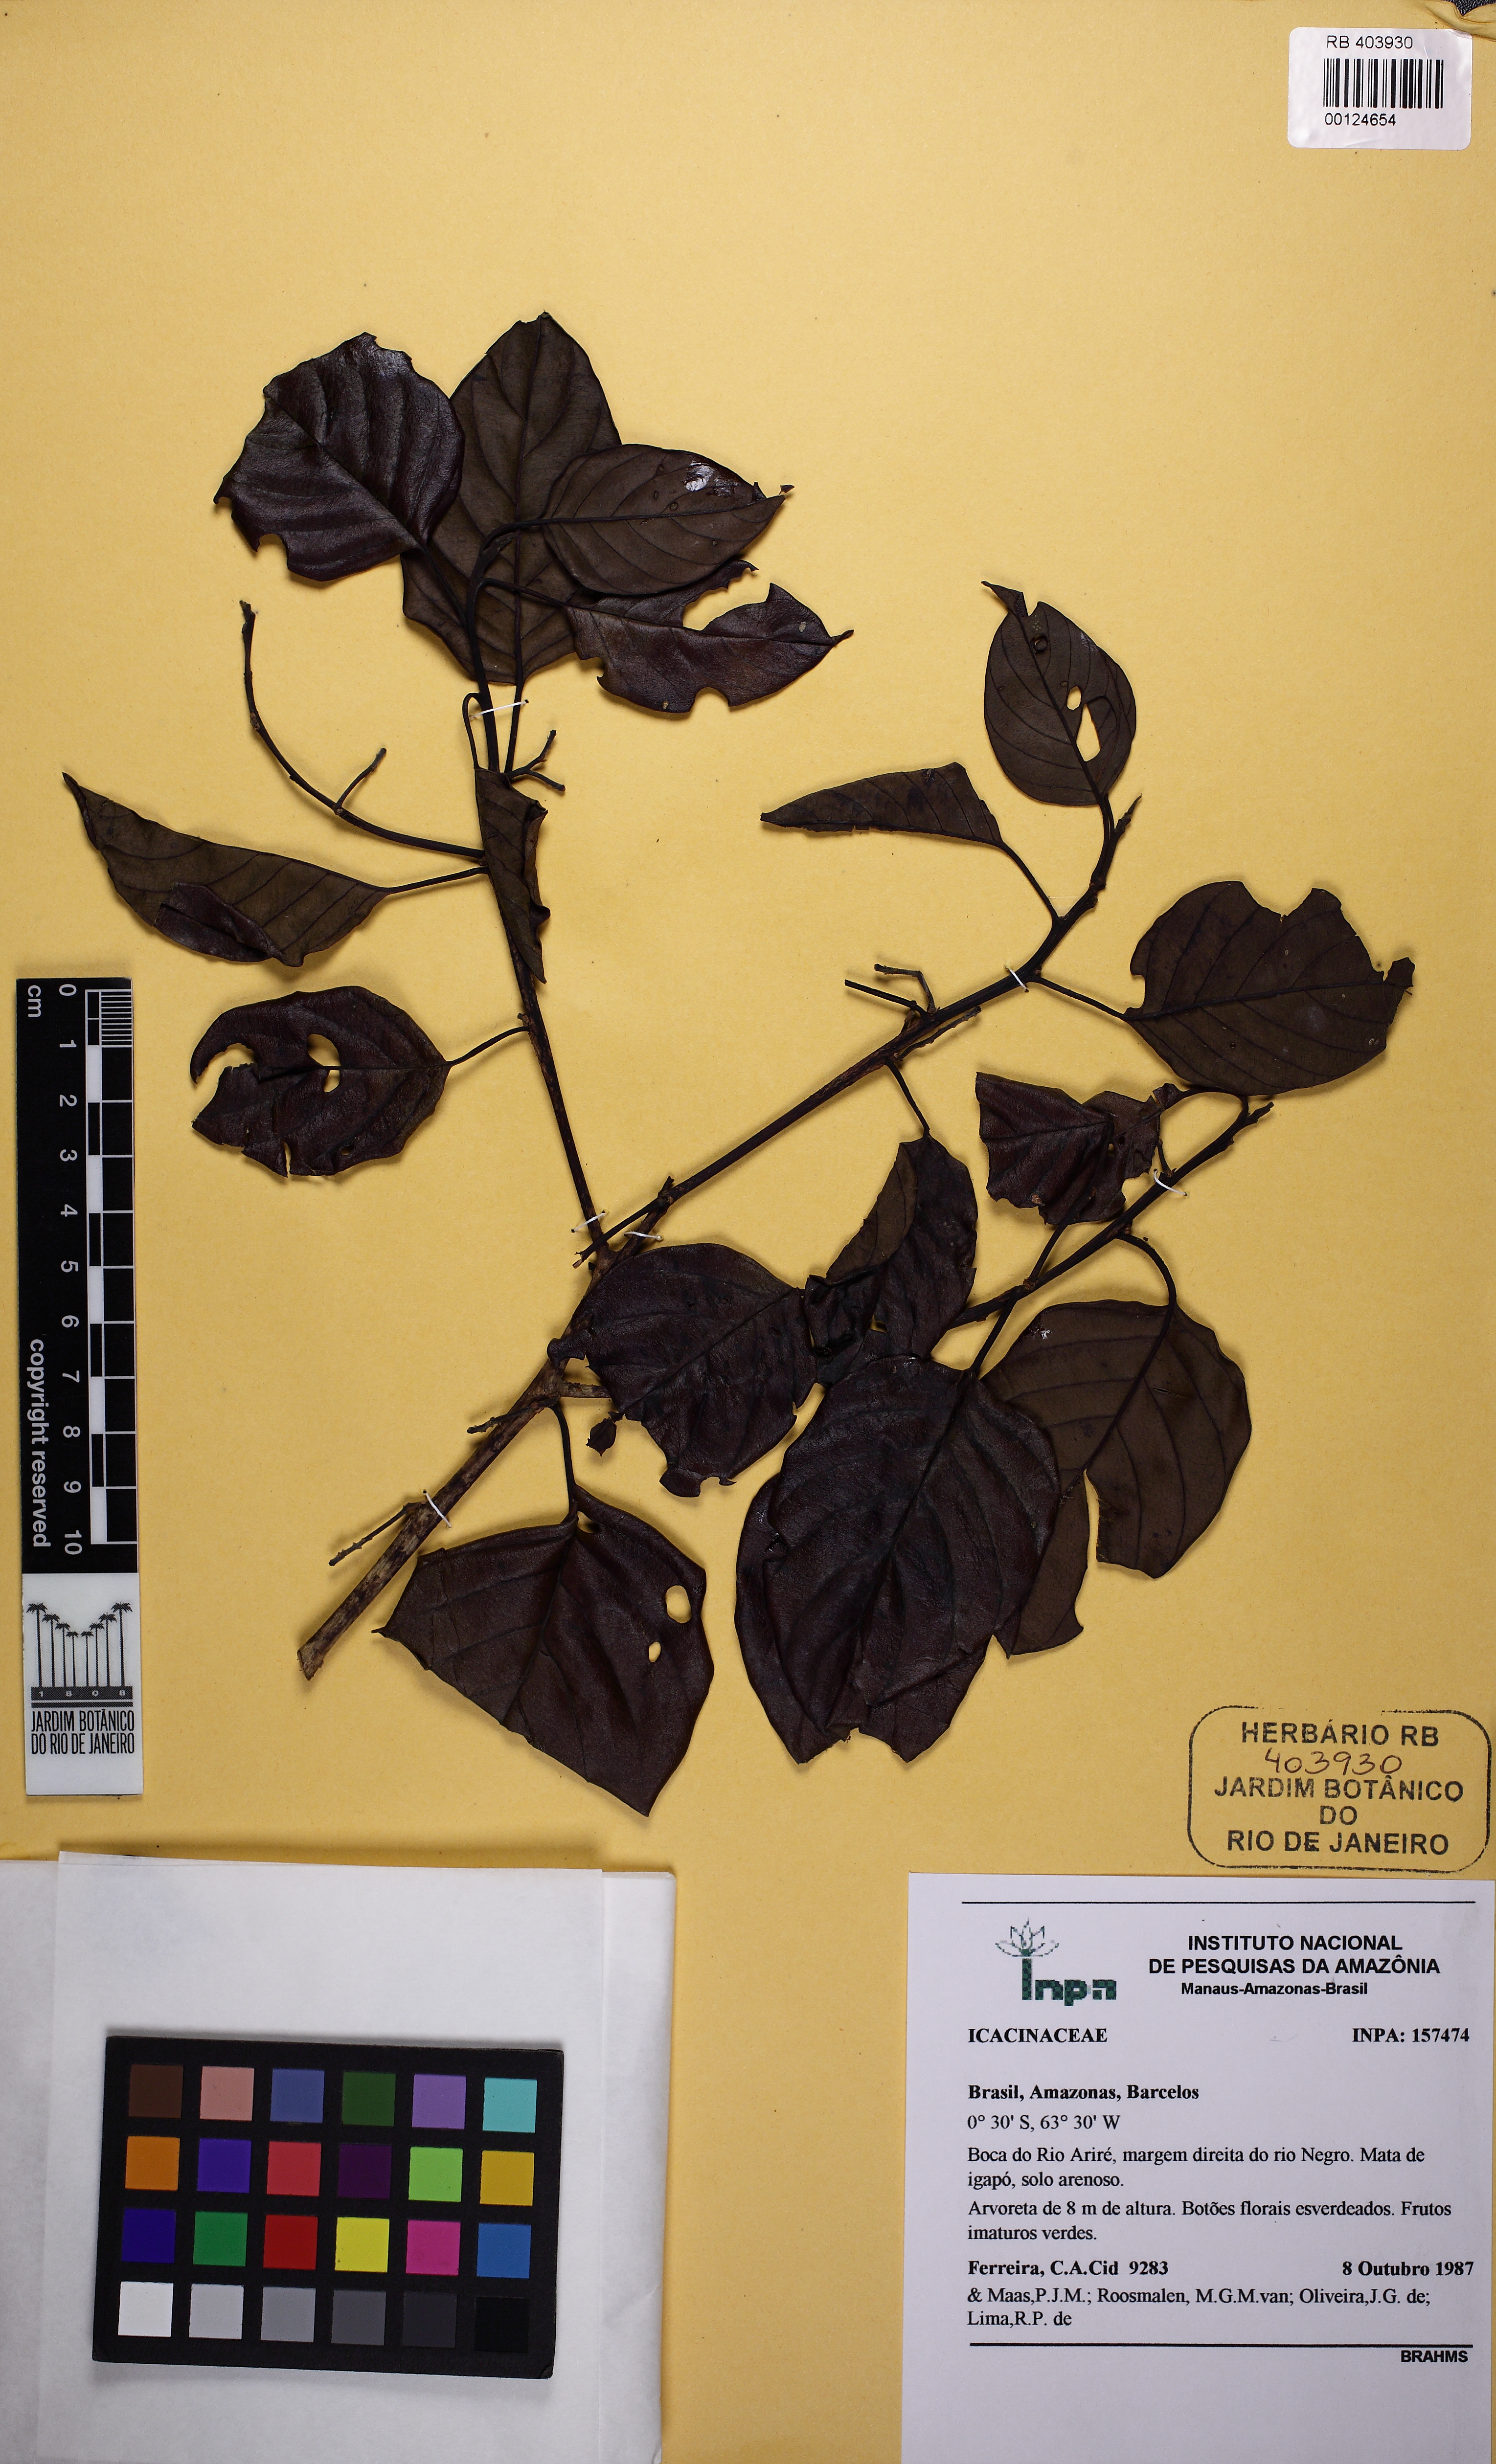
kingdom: Plantae
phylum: Tracheophyta
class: Magnoliopsida
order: Icacinales
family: Icacinaceae
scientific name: Icacinaceae
